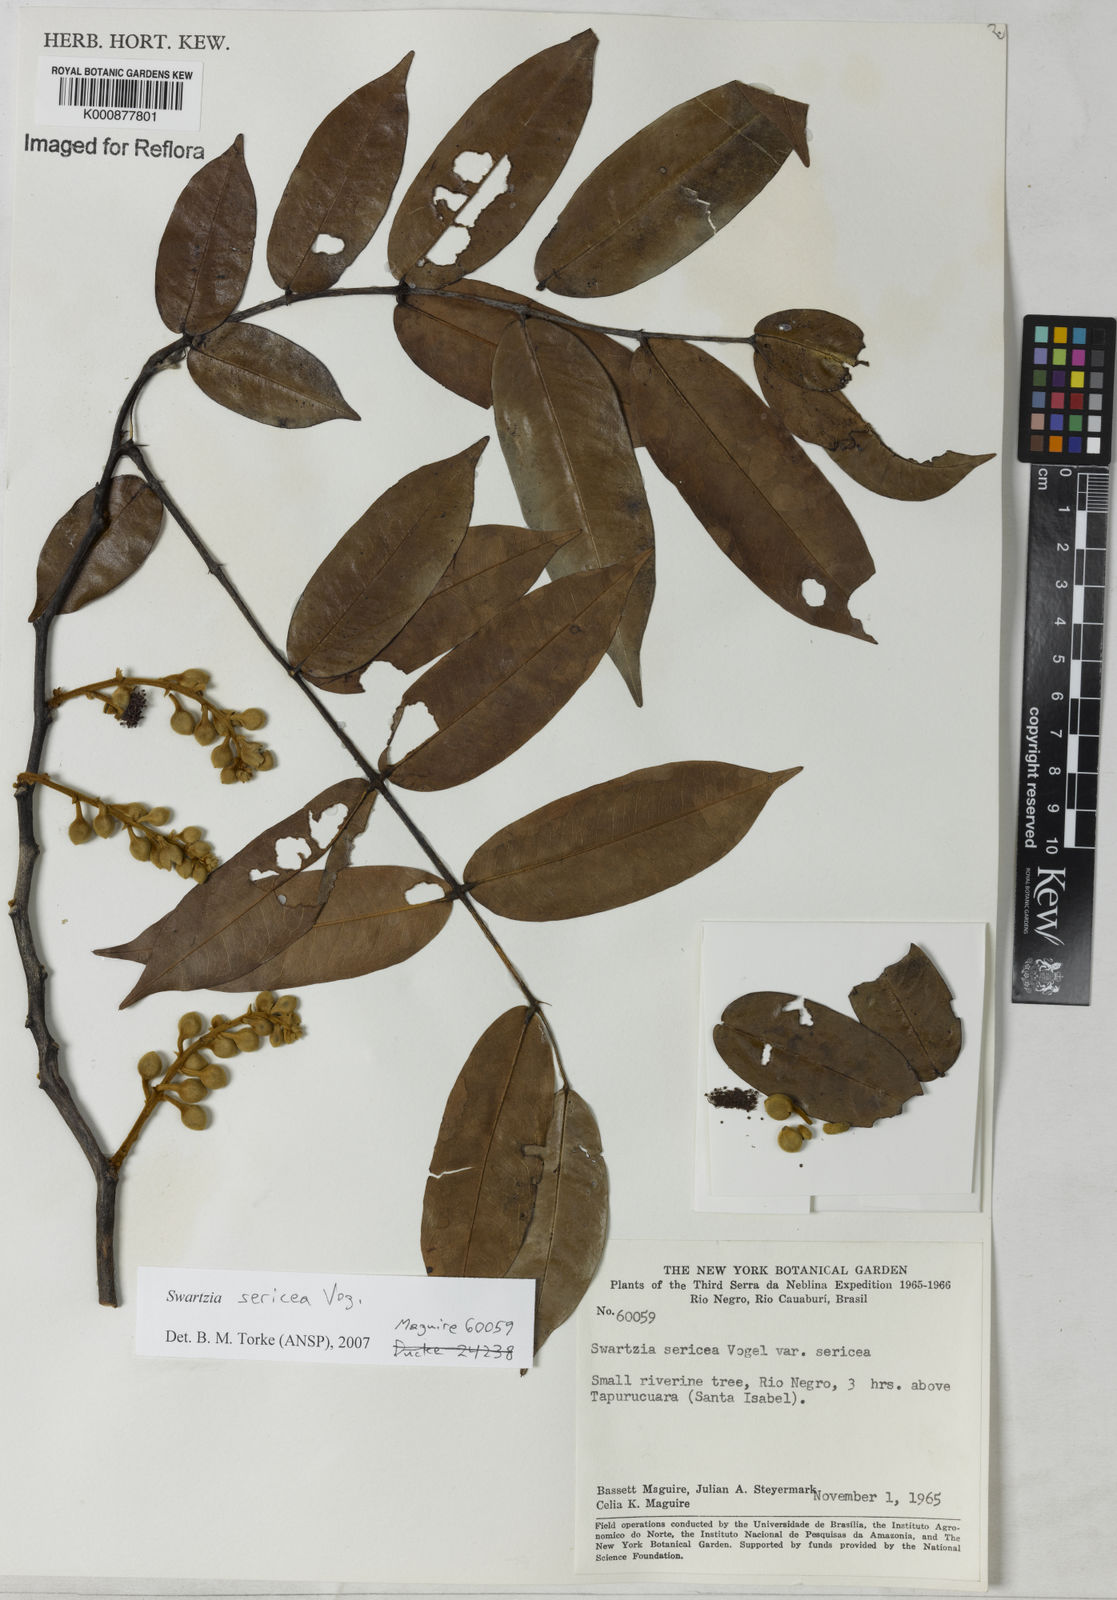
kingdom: Plantae
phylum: Tracheophyta
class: Magnoliopsida
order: Fabales
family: Fabaceae
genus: Swartzia
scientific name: Swartzia sericea
